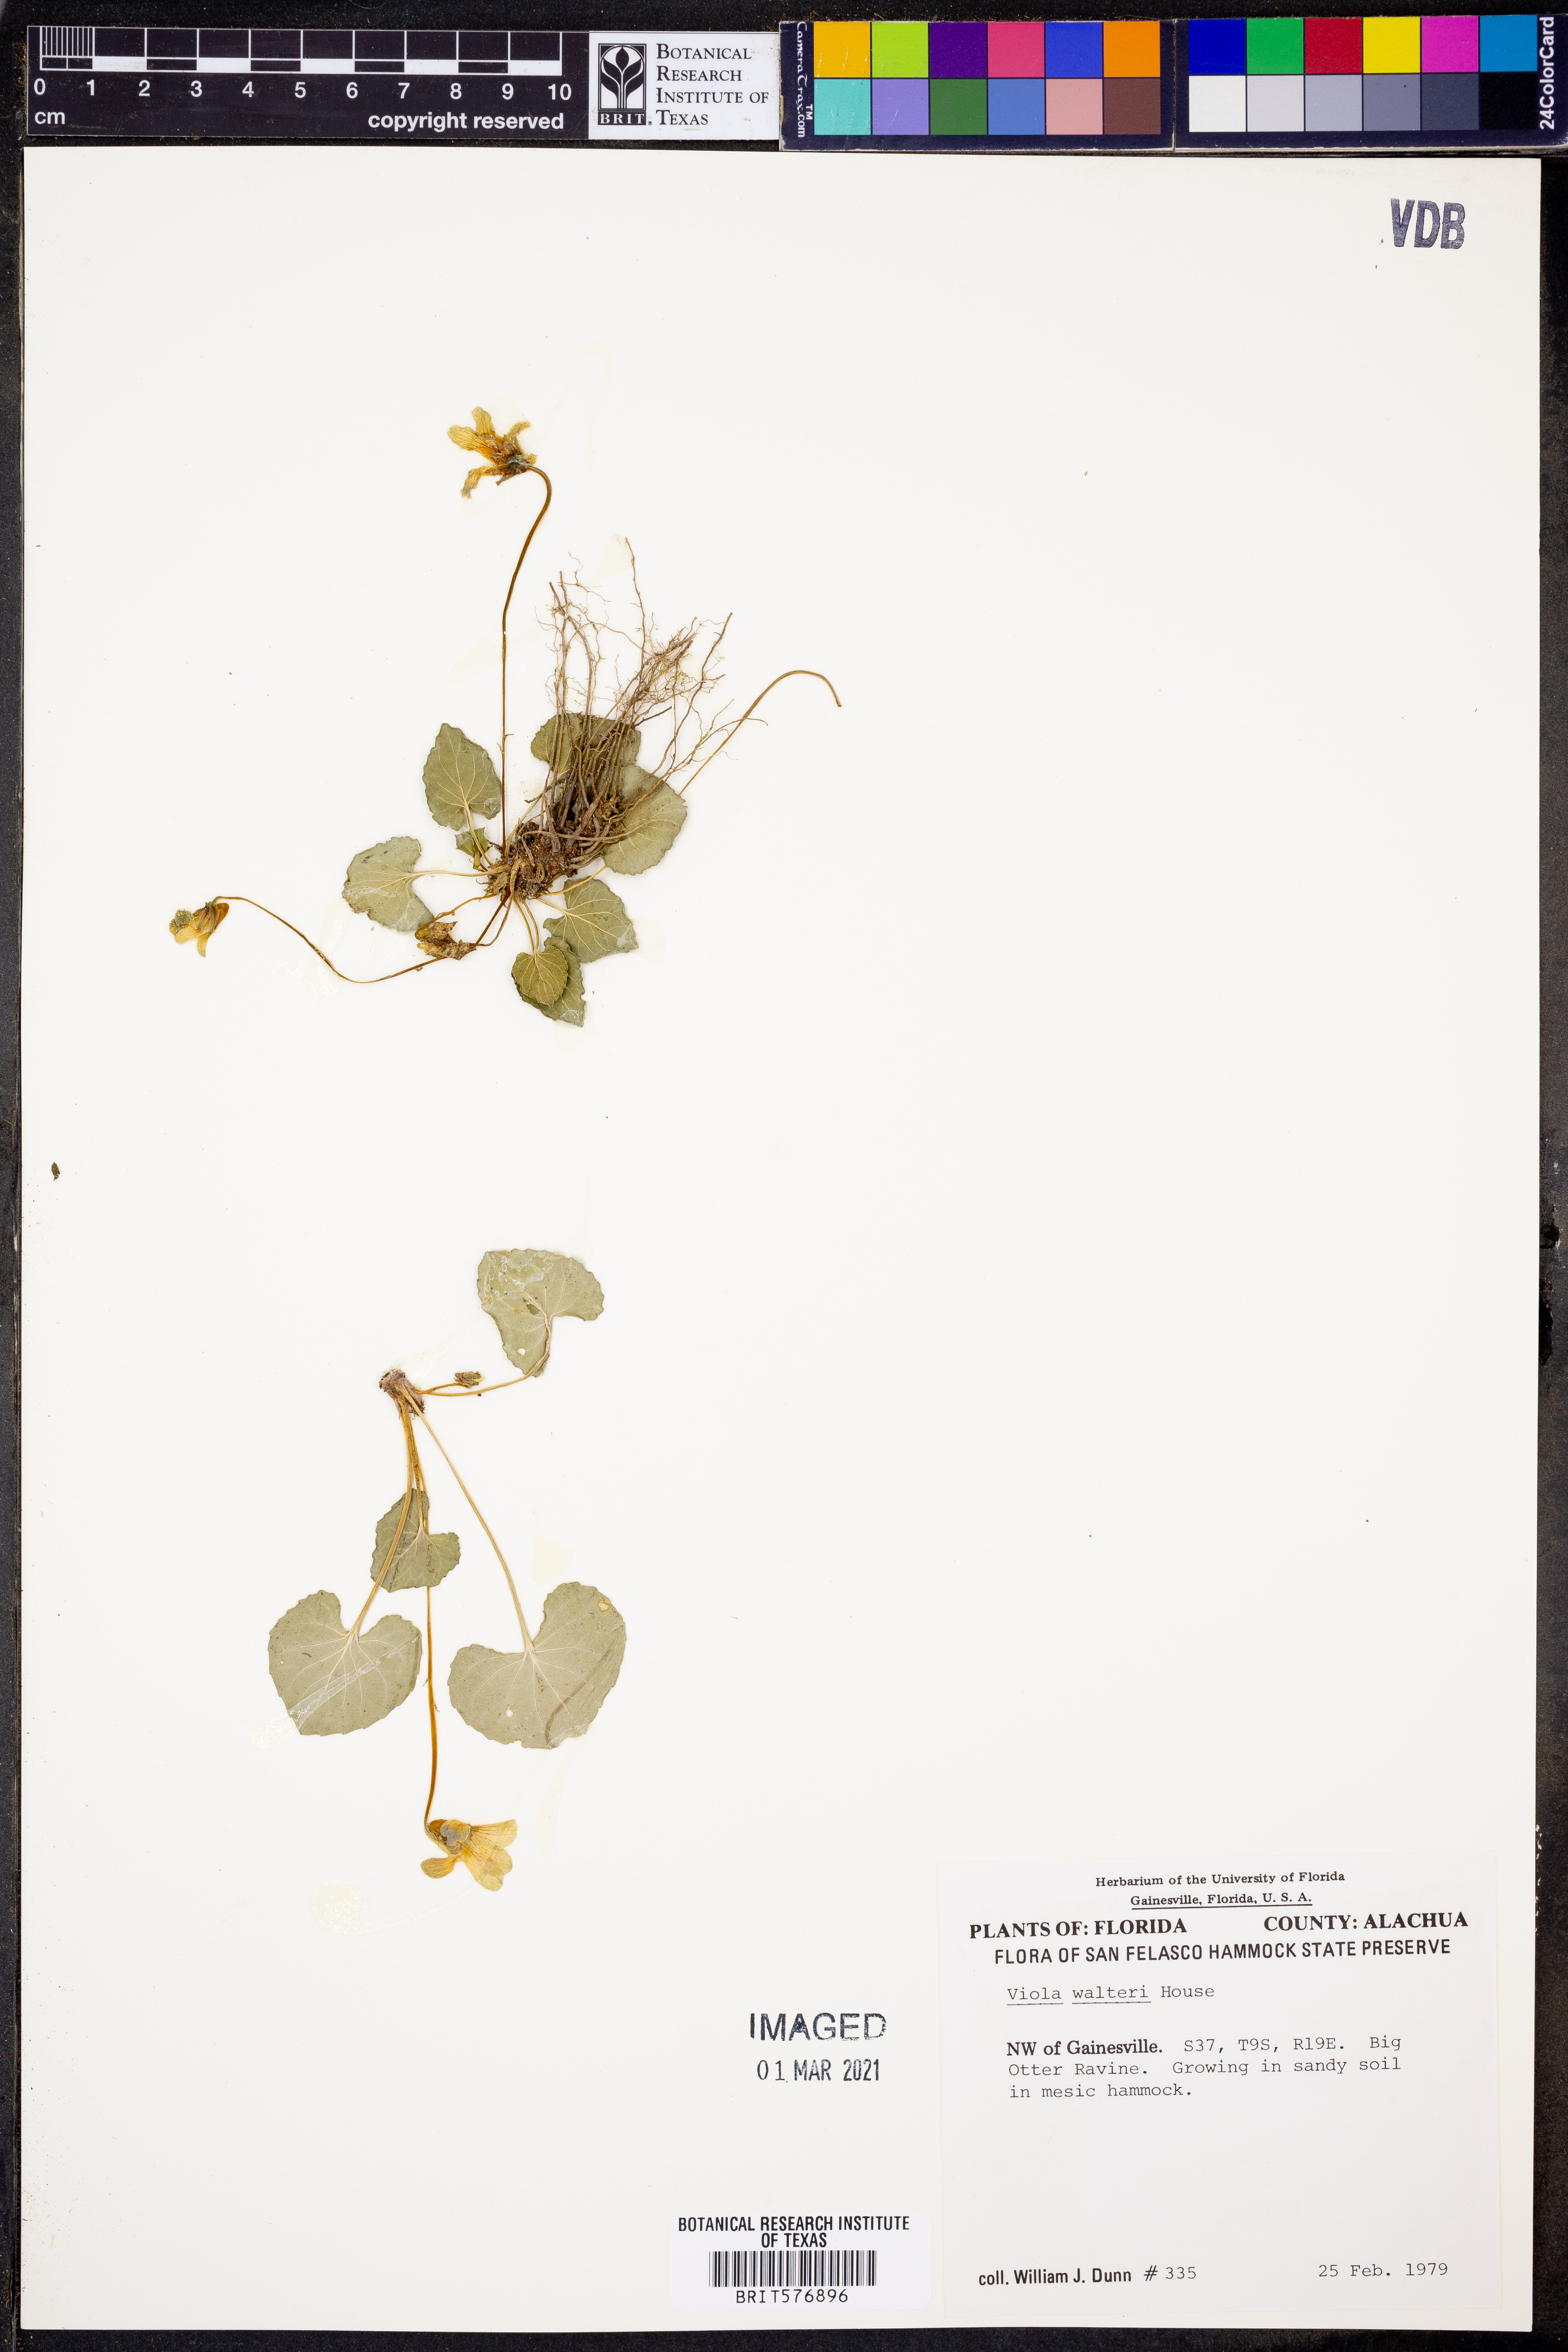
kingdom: Plantae
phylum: Tracheophyta
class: Magnoliopsida
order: Malpighiales
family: Violaceae
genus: Viola
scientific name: Viola walteri
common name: Prostrate southern violet
